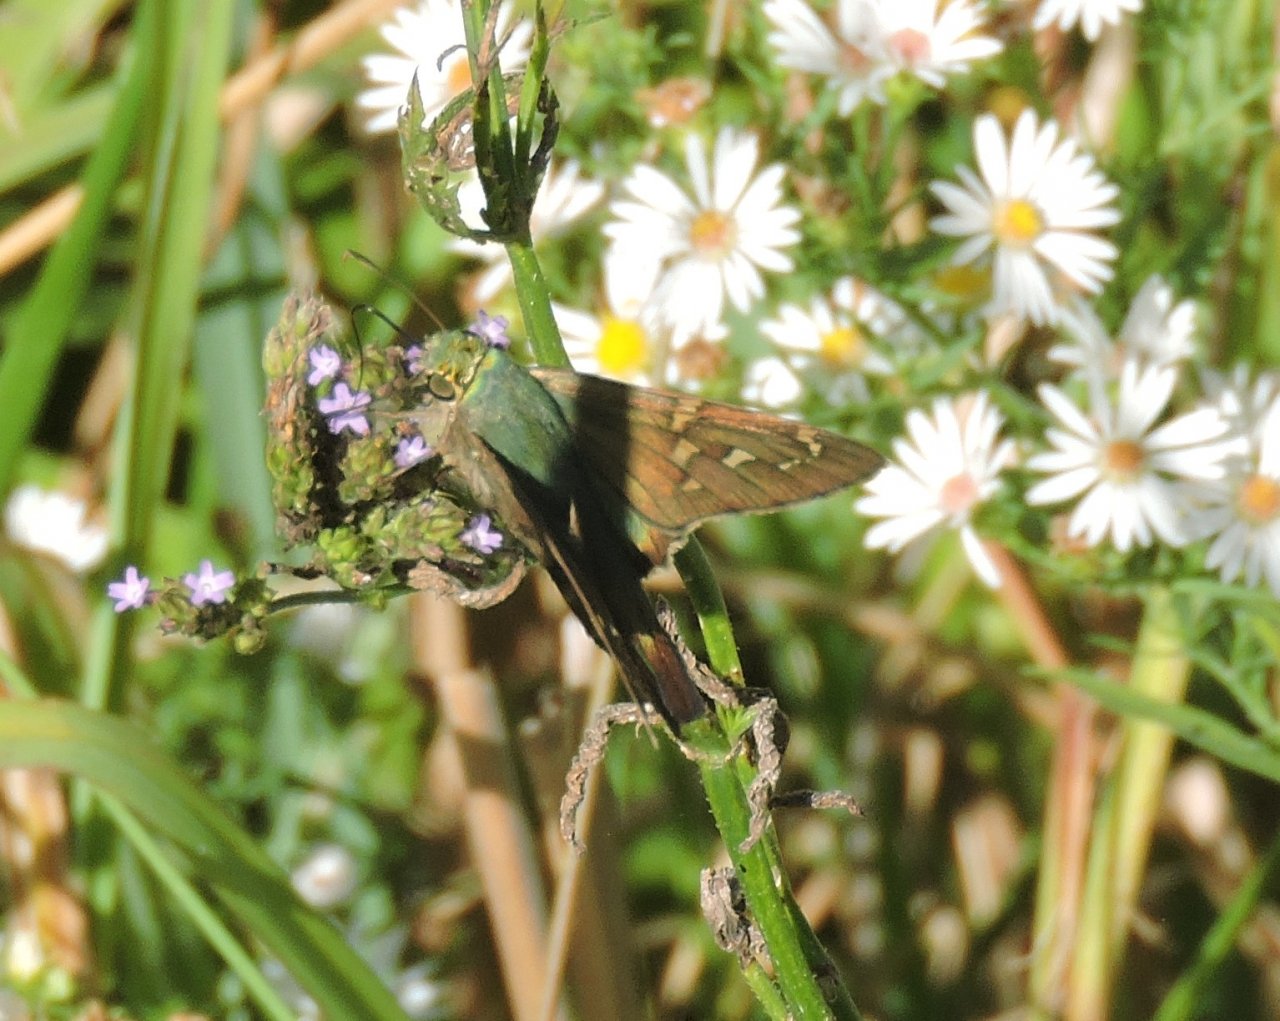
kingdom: Animalia
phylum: Arthropoda
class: Insecta
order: Lepidoptera
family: Hesperiidae
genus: Urbanus
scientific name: Urbanus proteus
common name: Long-tailed Skipper
